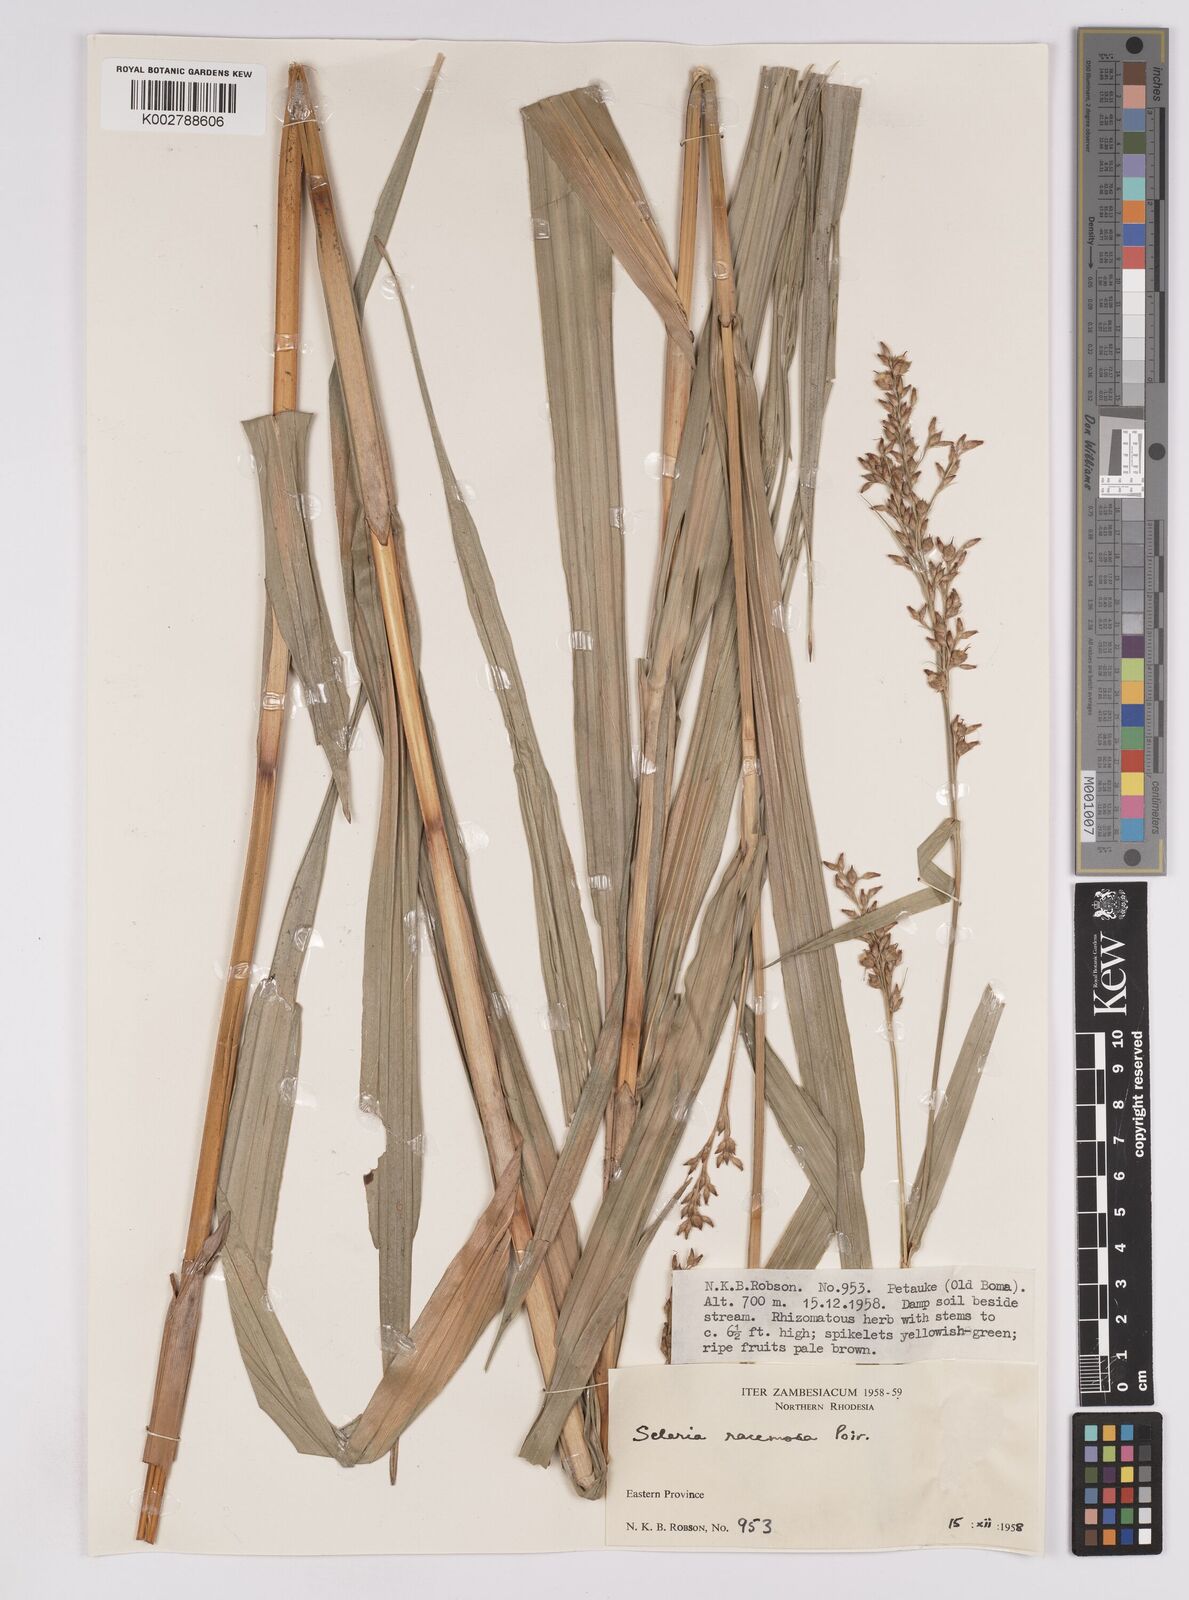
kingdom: Plantae
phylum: Tracheophyta
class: Liliopsida
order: Poales
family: Cyperaceae
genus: Scleria
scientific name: Scleria racemosa
